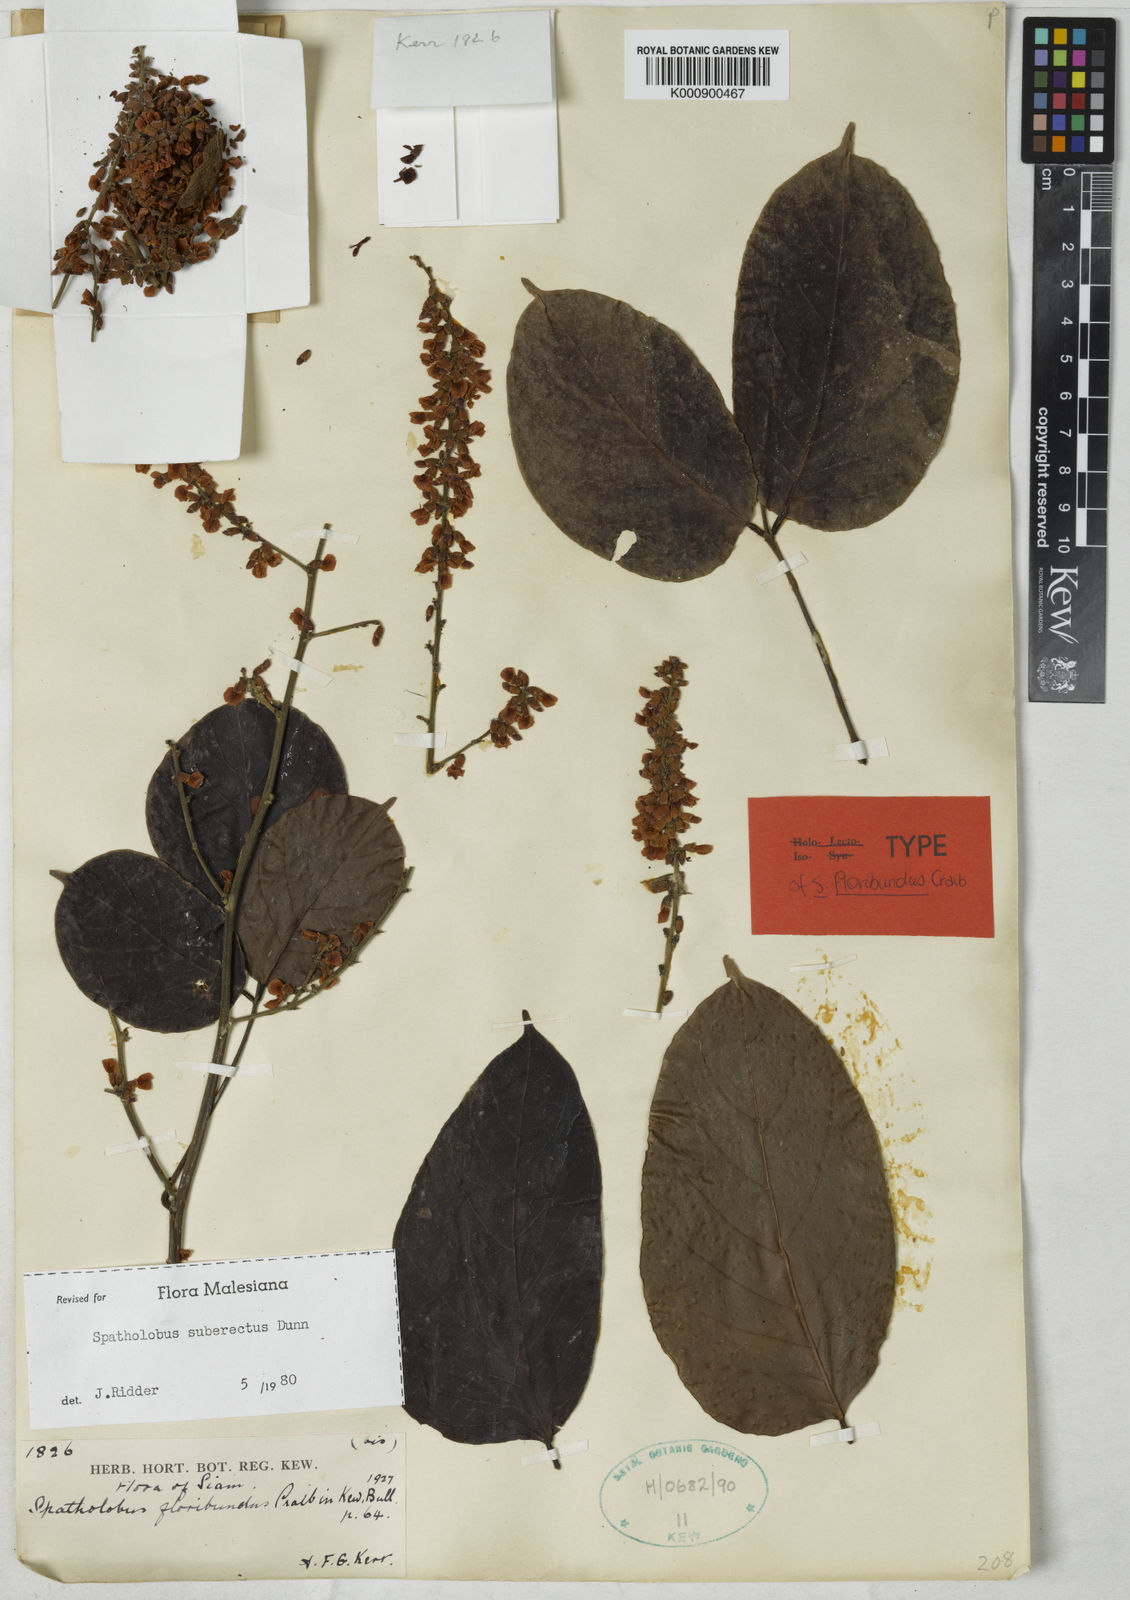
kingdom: Plantae
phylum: Tracheophyta
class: Magnoliopsida
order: Fabales
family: Fabaceae
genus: Spatholobus
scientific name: Spatholobus suberectus
